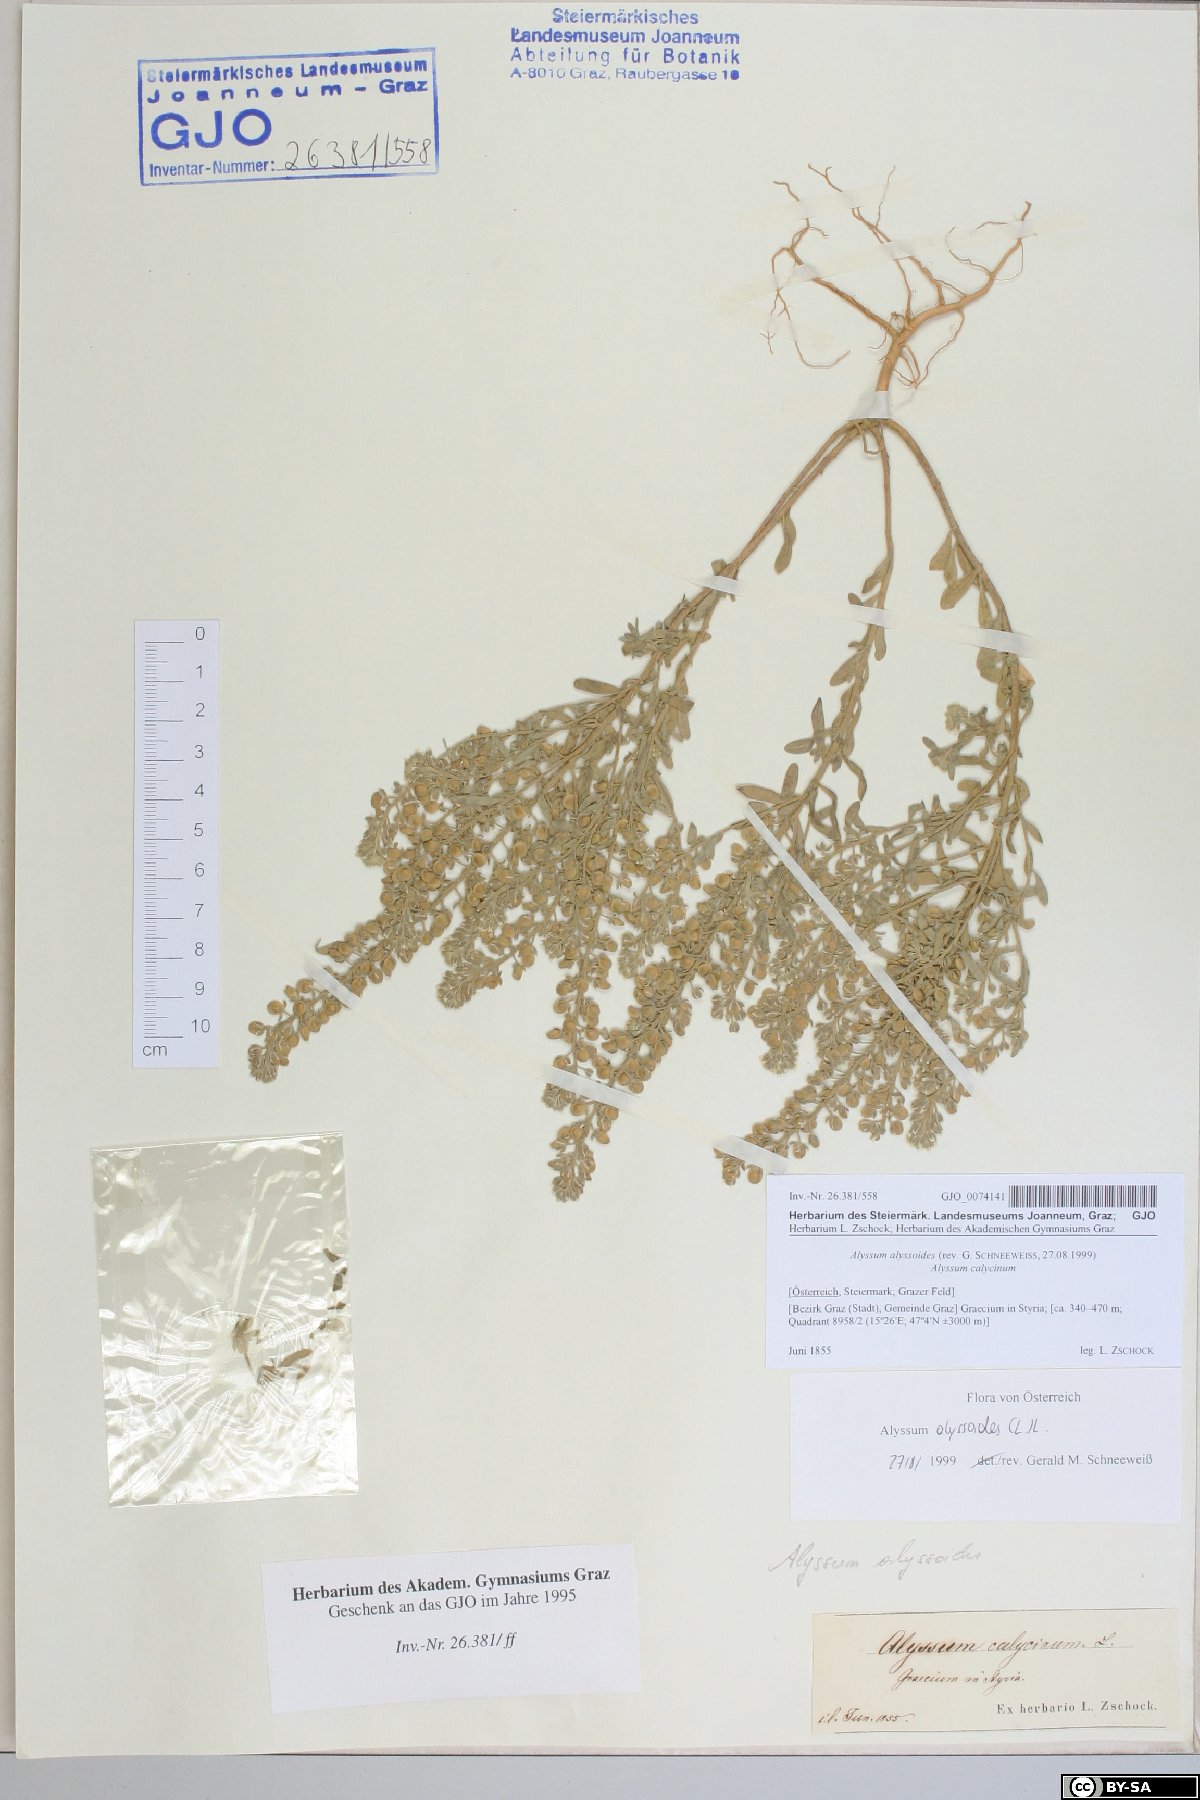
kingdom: Plantae
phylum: Tracheophyta
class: Magnoliopsida
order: Brassicales
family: Brassicaceae
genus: Alyssum
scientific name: Alyssum alyssoides
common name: Small alison
